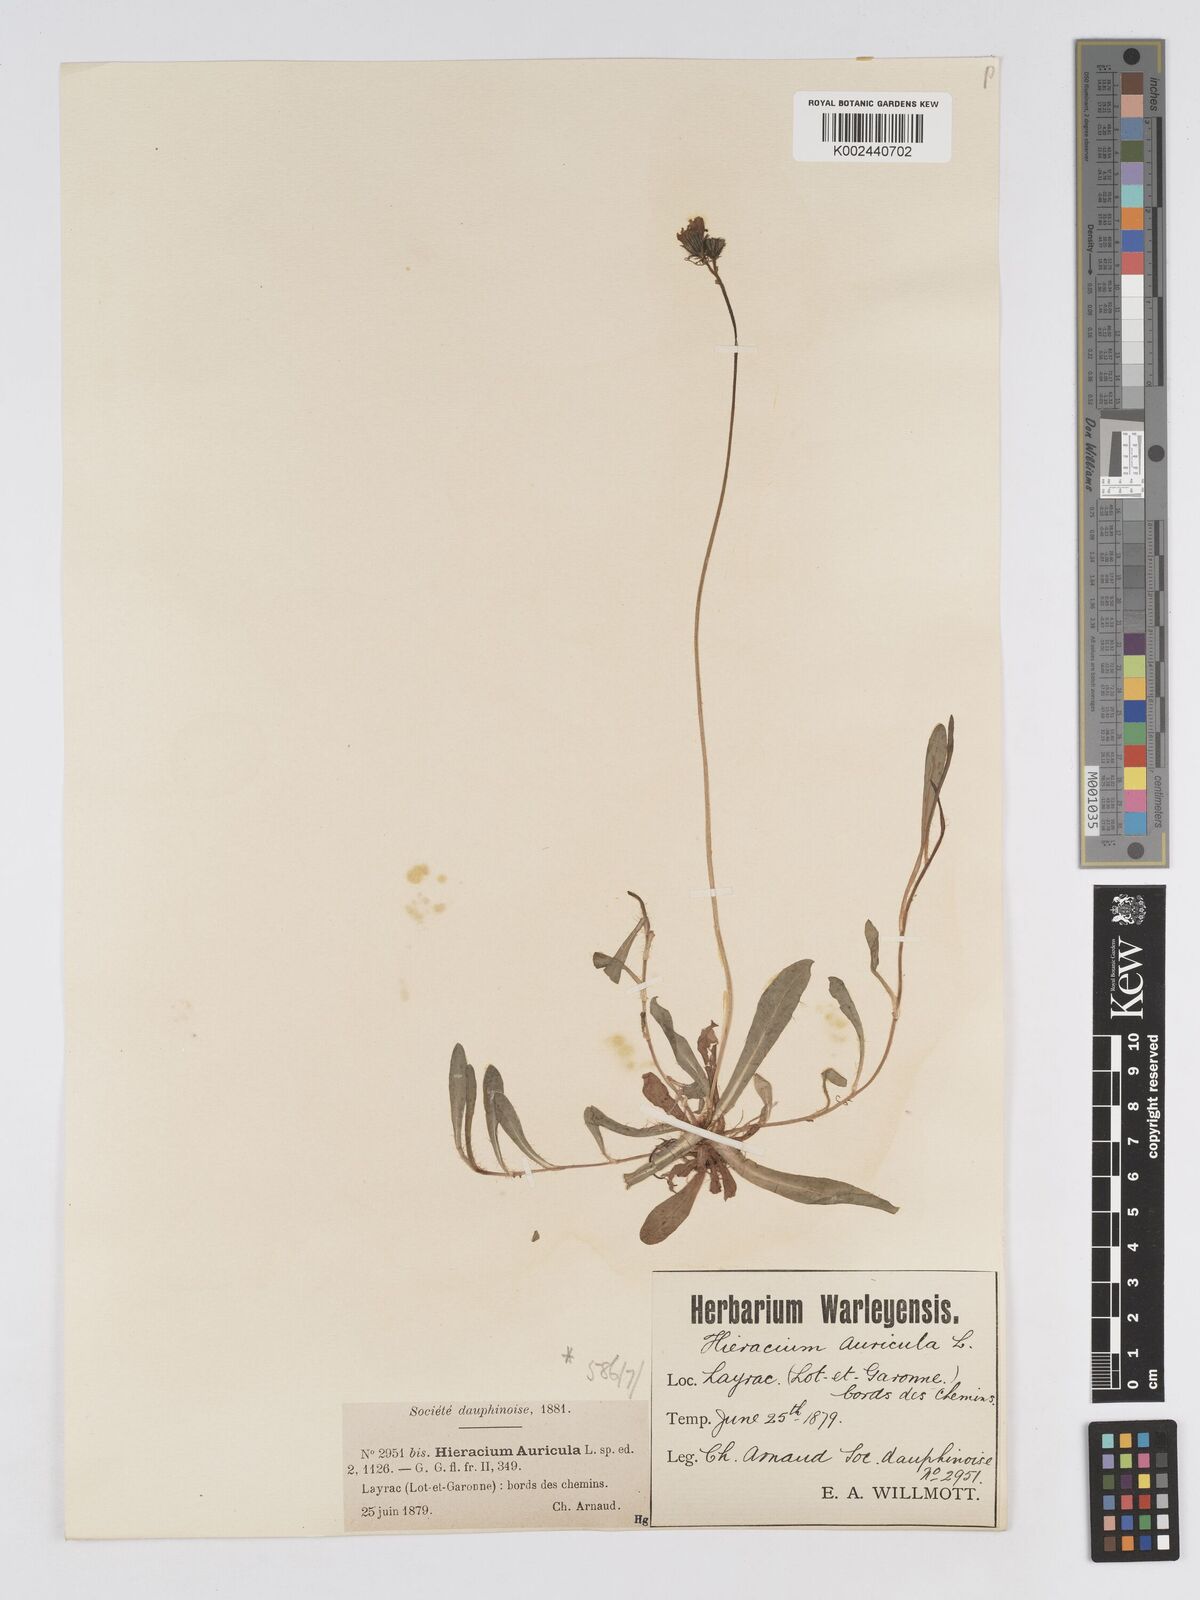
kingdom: Plantae
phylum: Tracheophyta
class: Magnoliopsida
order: Asterales
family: Asteraceae
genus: Pilosella
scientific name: Pilosella floribunda
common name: Glaucous hawkweed
